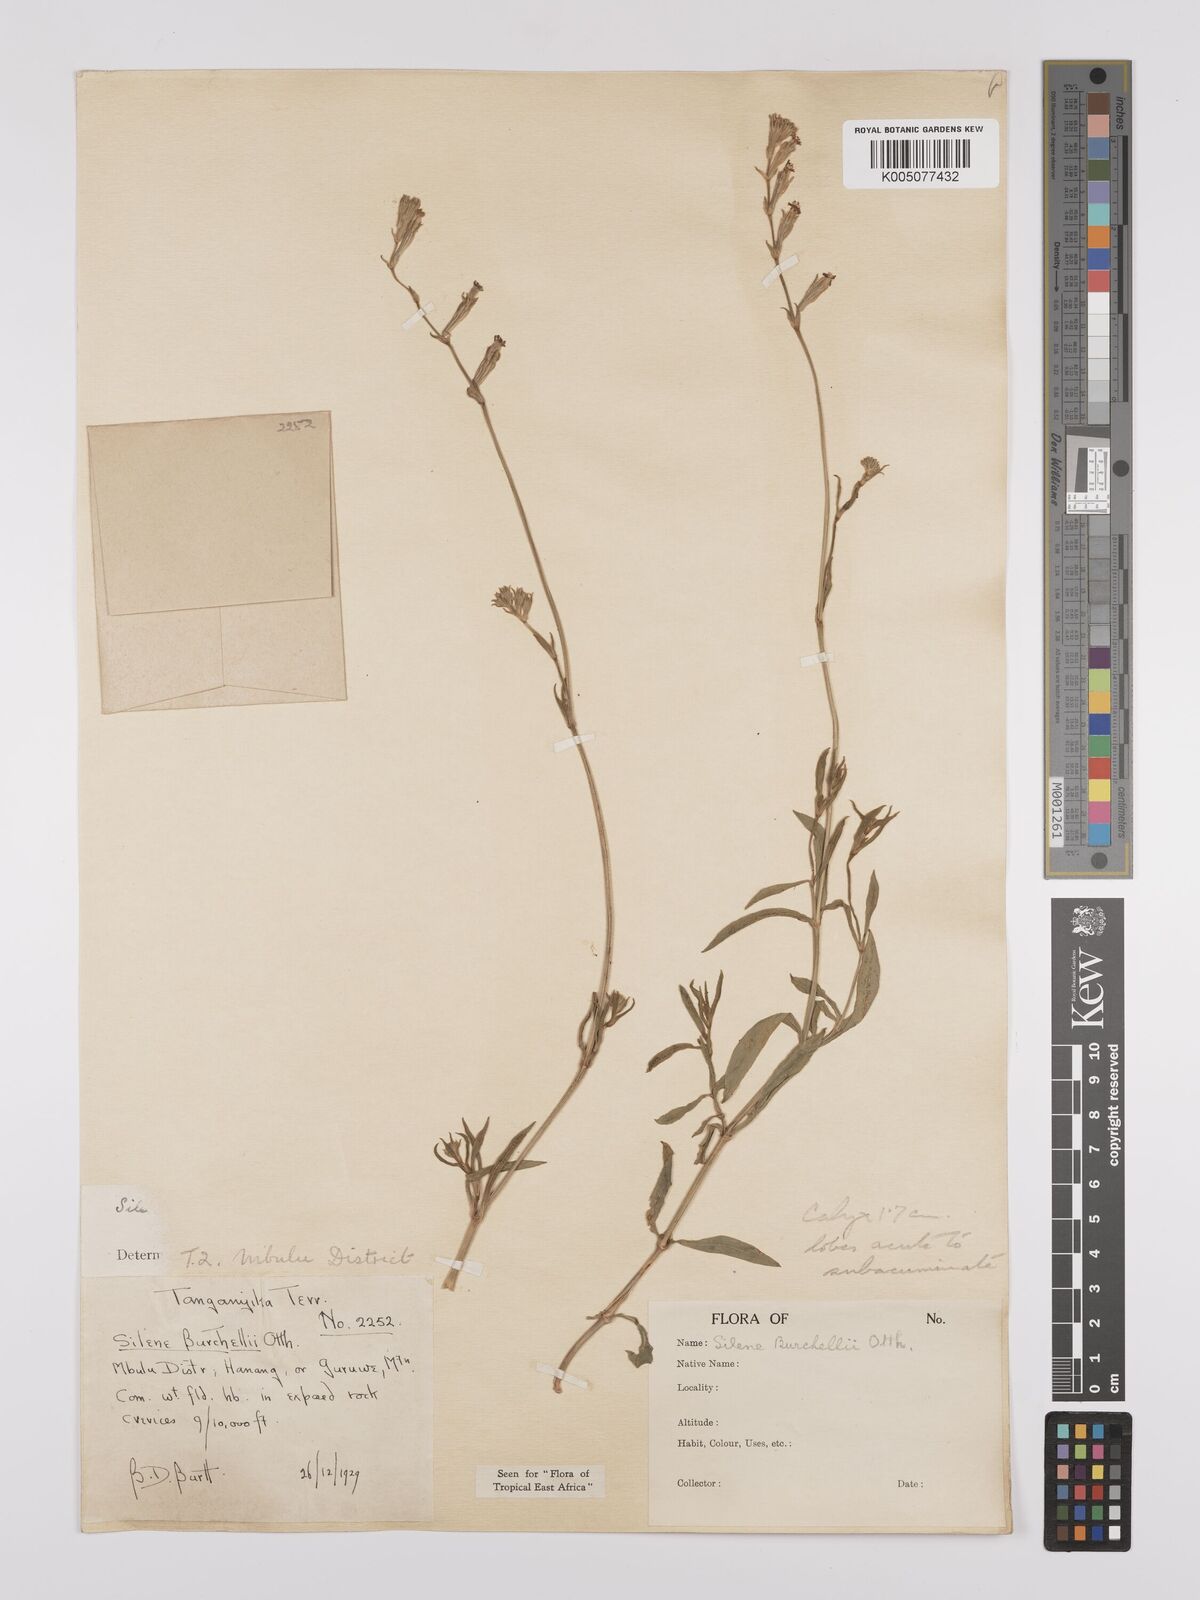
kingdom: Plantae
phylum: Tracheophyta
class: Magnoliopsida
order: Caryophyllales
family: Caryophyllaceae
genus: Silene
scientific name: Silene burchellii
